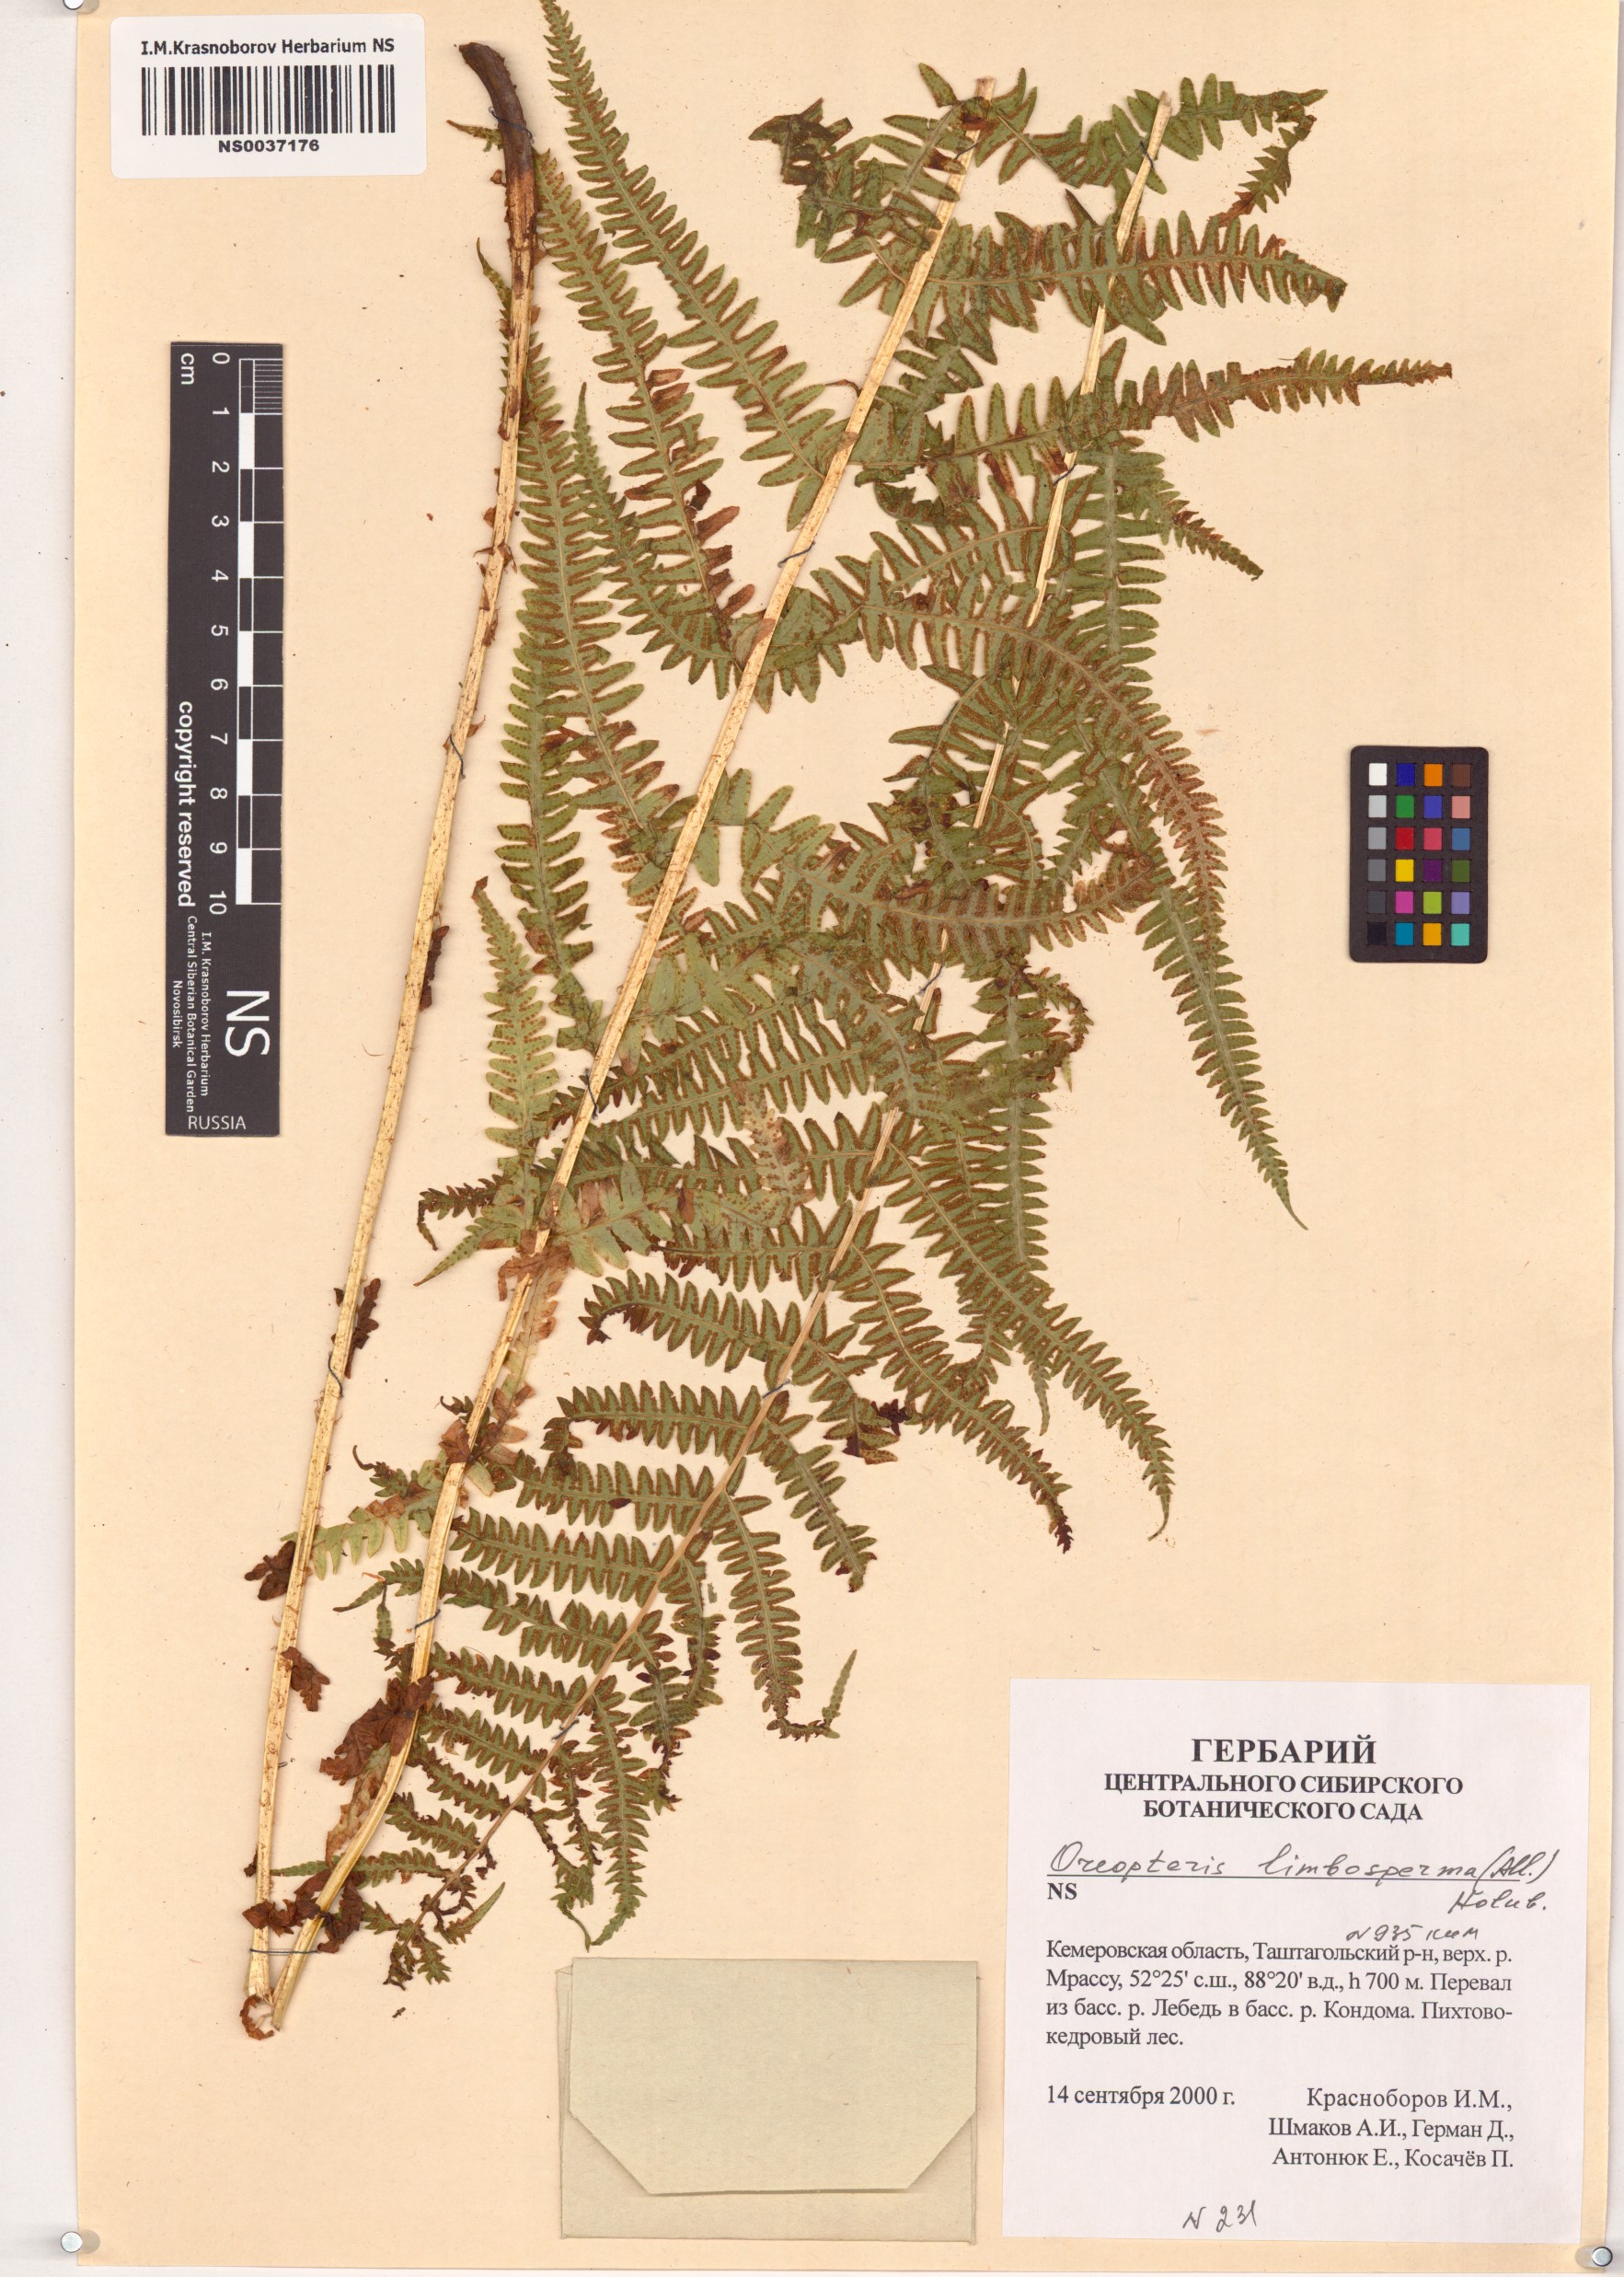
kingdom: Plantae
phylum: Tracheophyta
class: Polypodiopsida
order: Polypodiales
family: Thelypteridaceae
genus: Oreopteris
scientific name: Oreopteris limbosperma
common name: Lemon-scented fern
